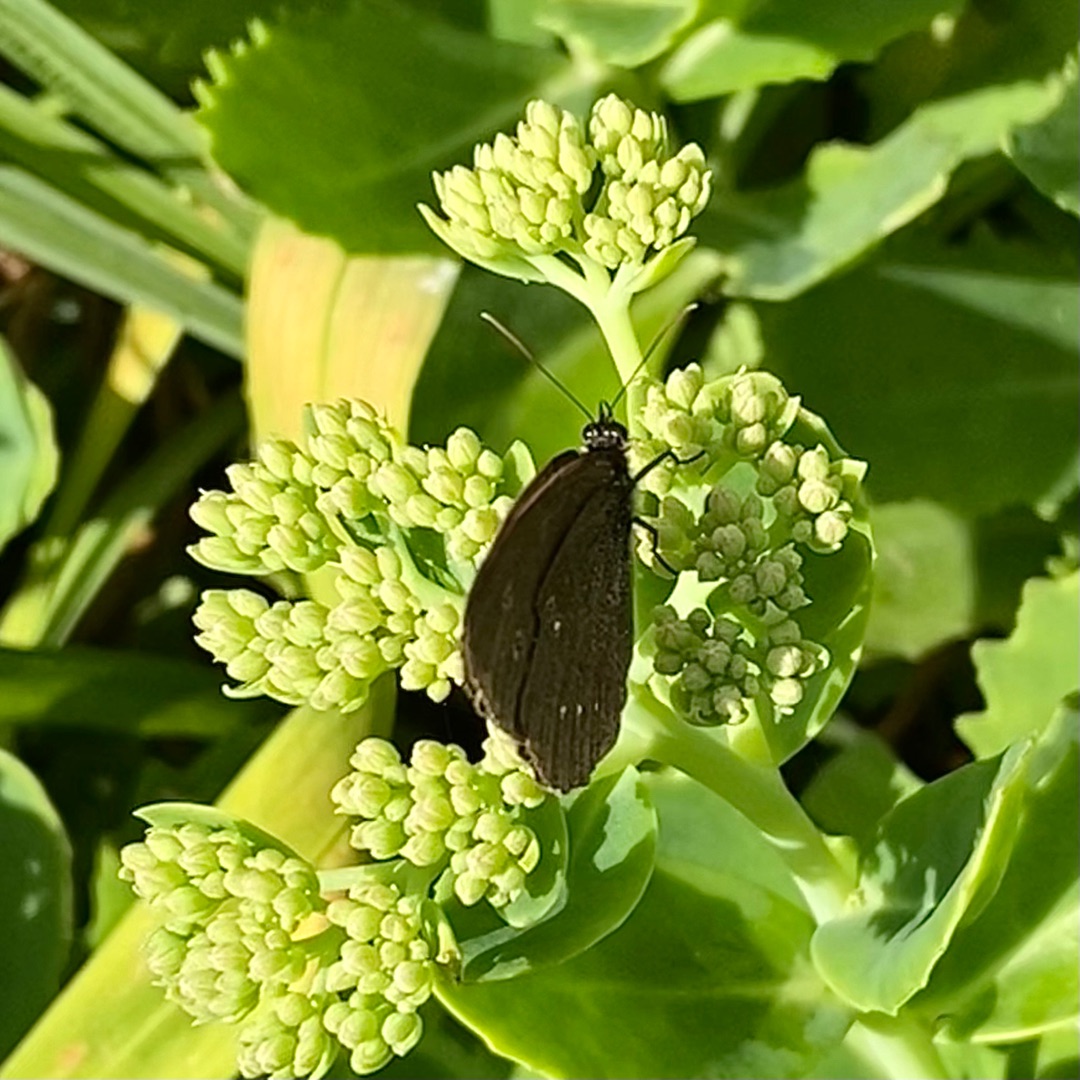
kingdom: Animalia
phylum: Arthropoda
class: Insecta
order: Lepidoptera
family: Nymphalidae
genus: Aphantopus
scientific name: Aphantopus hyperantus
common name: Engrandøje
